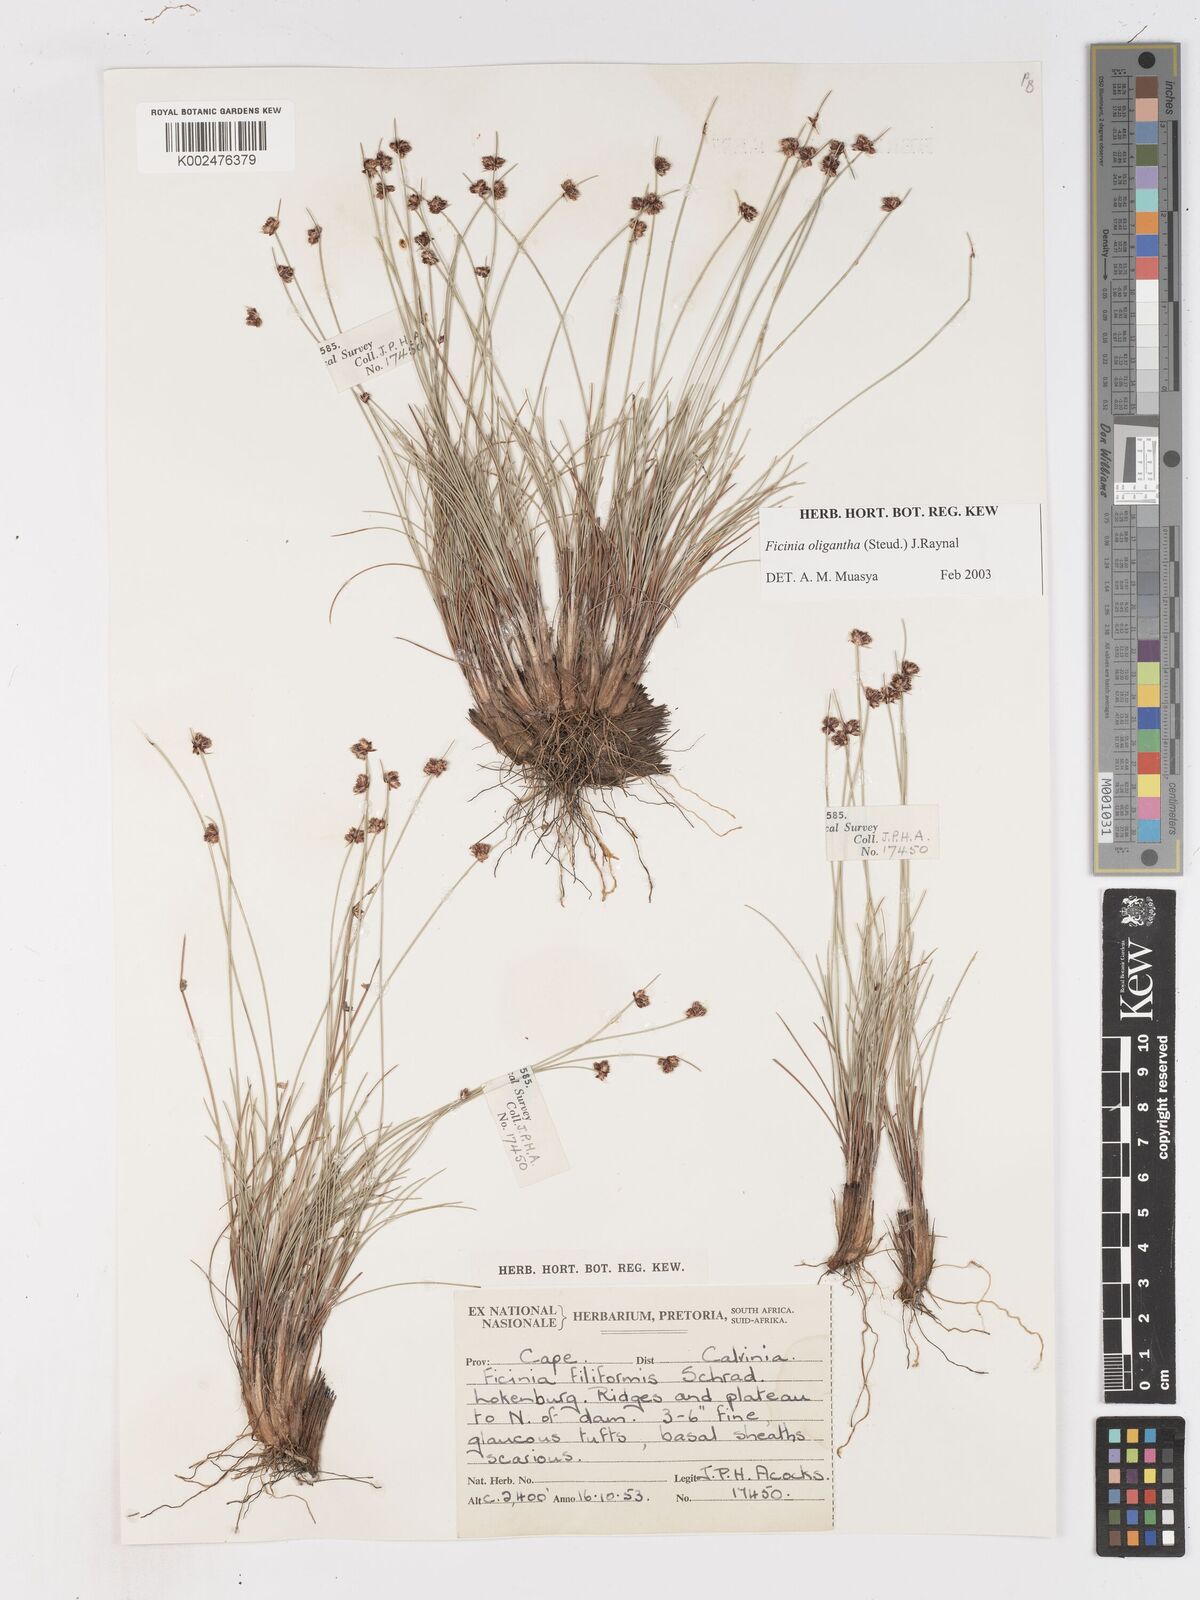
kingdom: Plantae
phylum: Tracheophyta
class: Liliopsida
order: Poales
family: Cyperaceae
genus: Ficinia
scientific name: Ficinia oligantha
